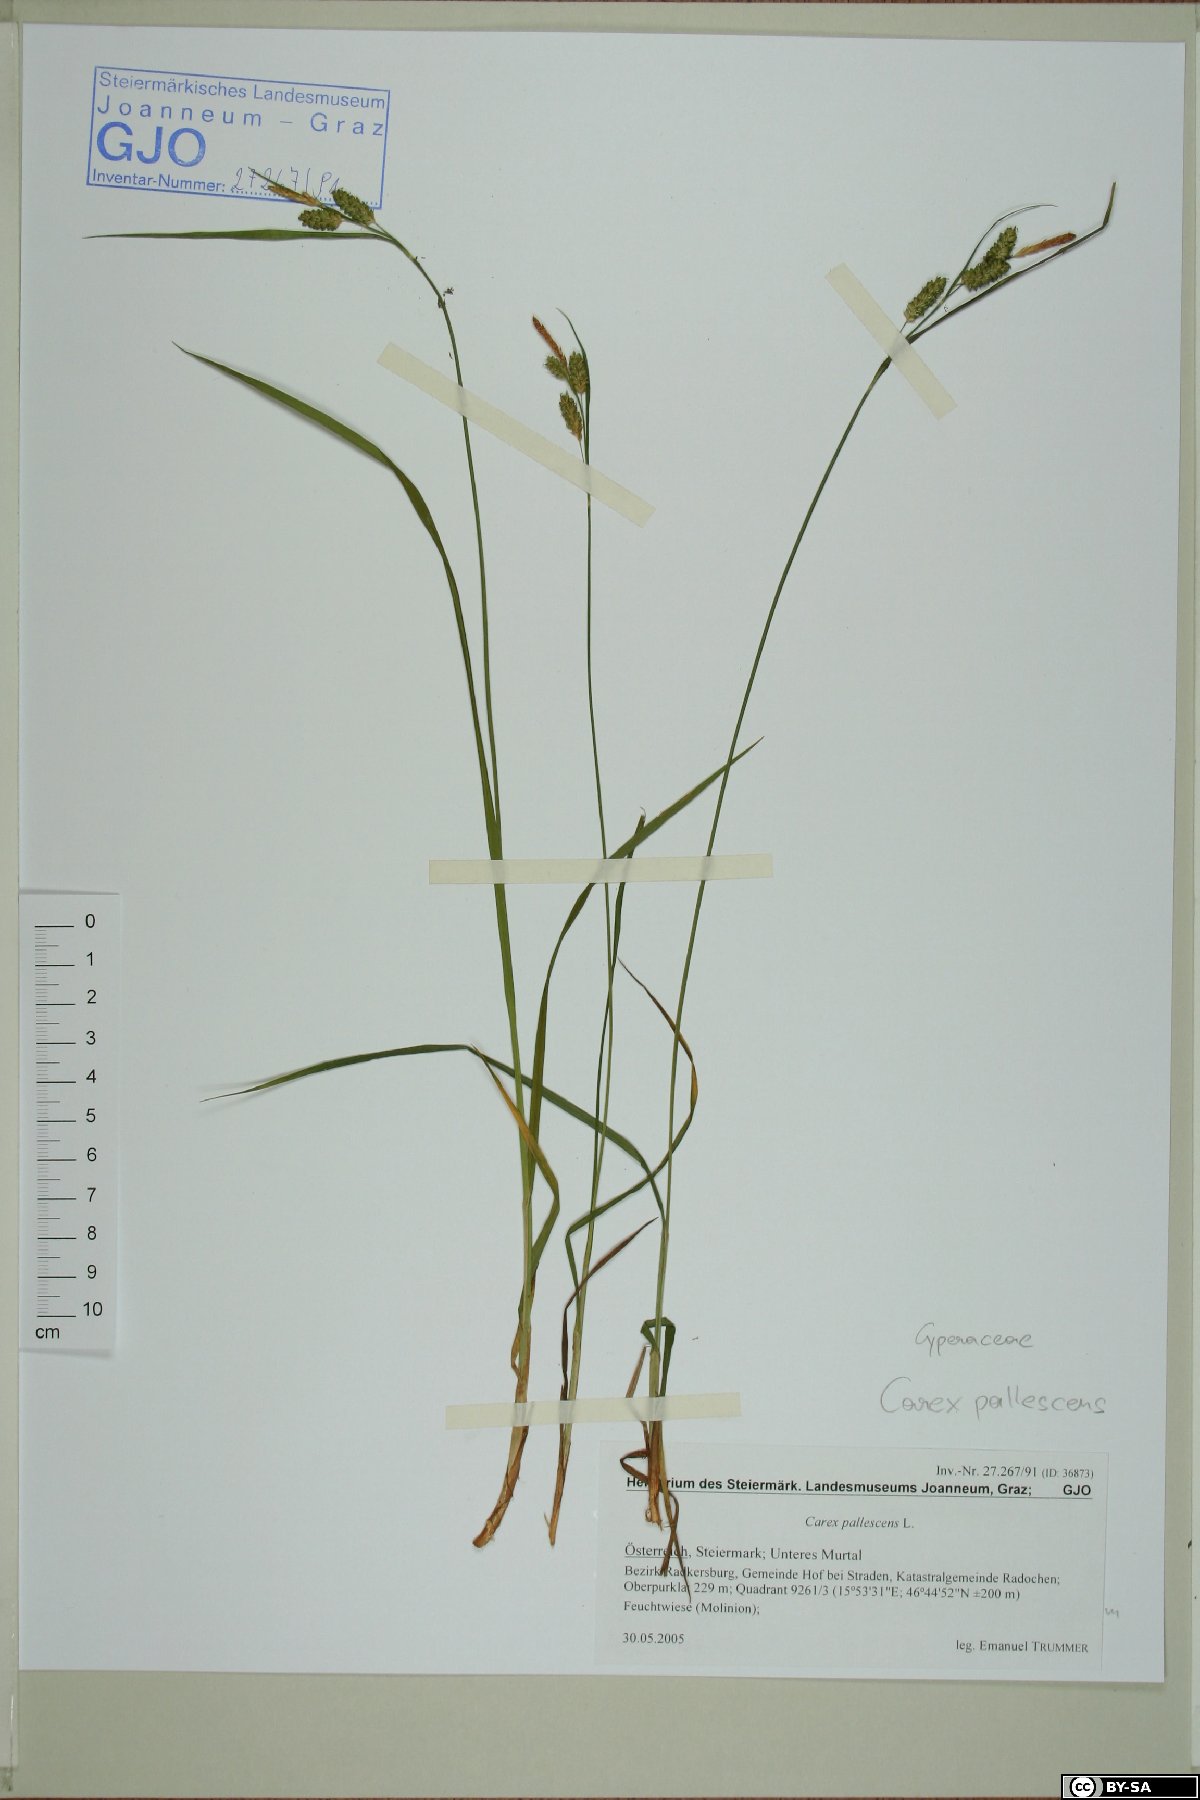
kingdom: Plantae
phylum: Tracheophyta
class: Liliopsida
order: Poales
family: Cyperaceae
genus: Carex
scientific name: Carex pallescens
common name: Pale sedge
